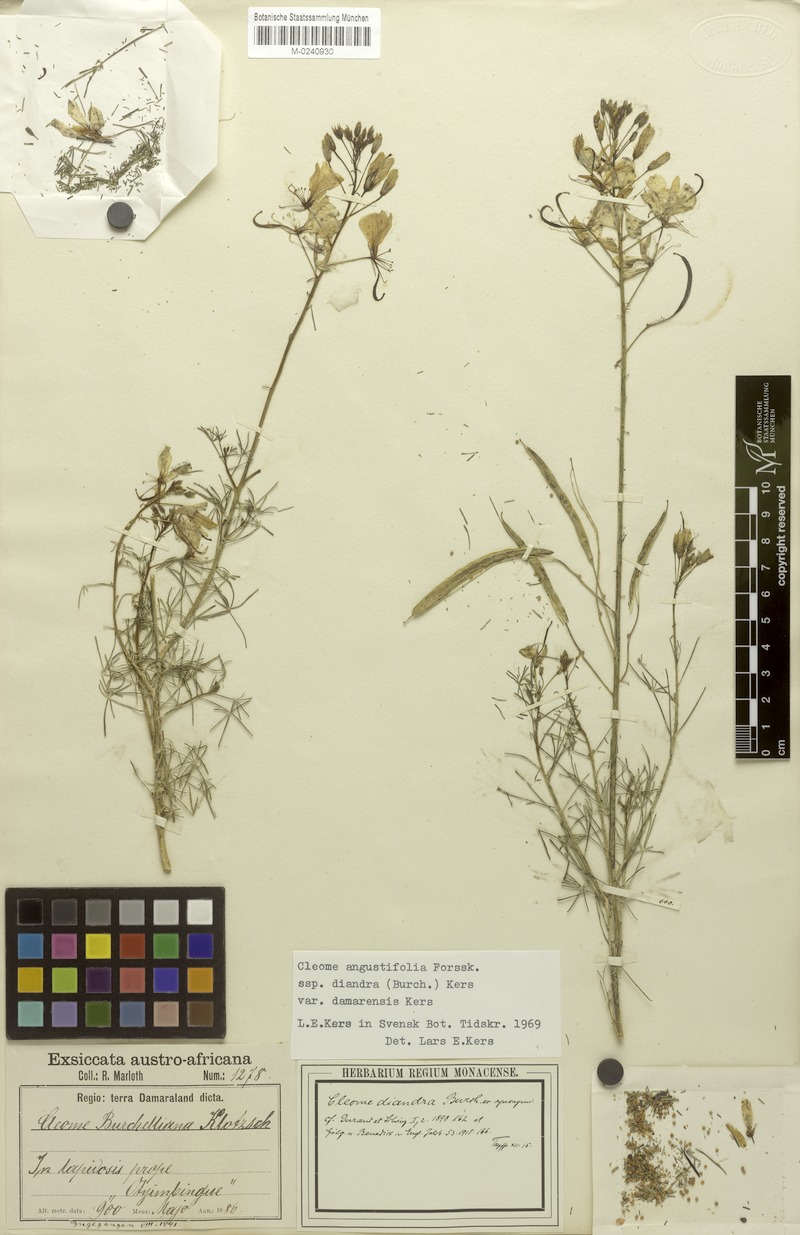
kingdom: Plantae
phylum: Tracheophyta
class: Magnoliopsida
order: Brassicales
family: Cleomaceae
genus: Coalisina
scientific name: Coalisina angustifolia
